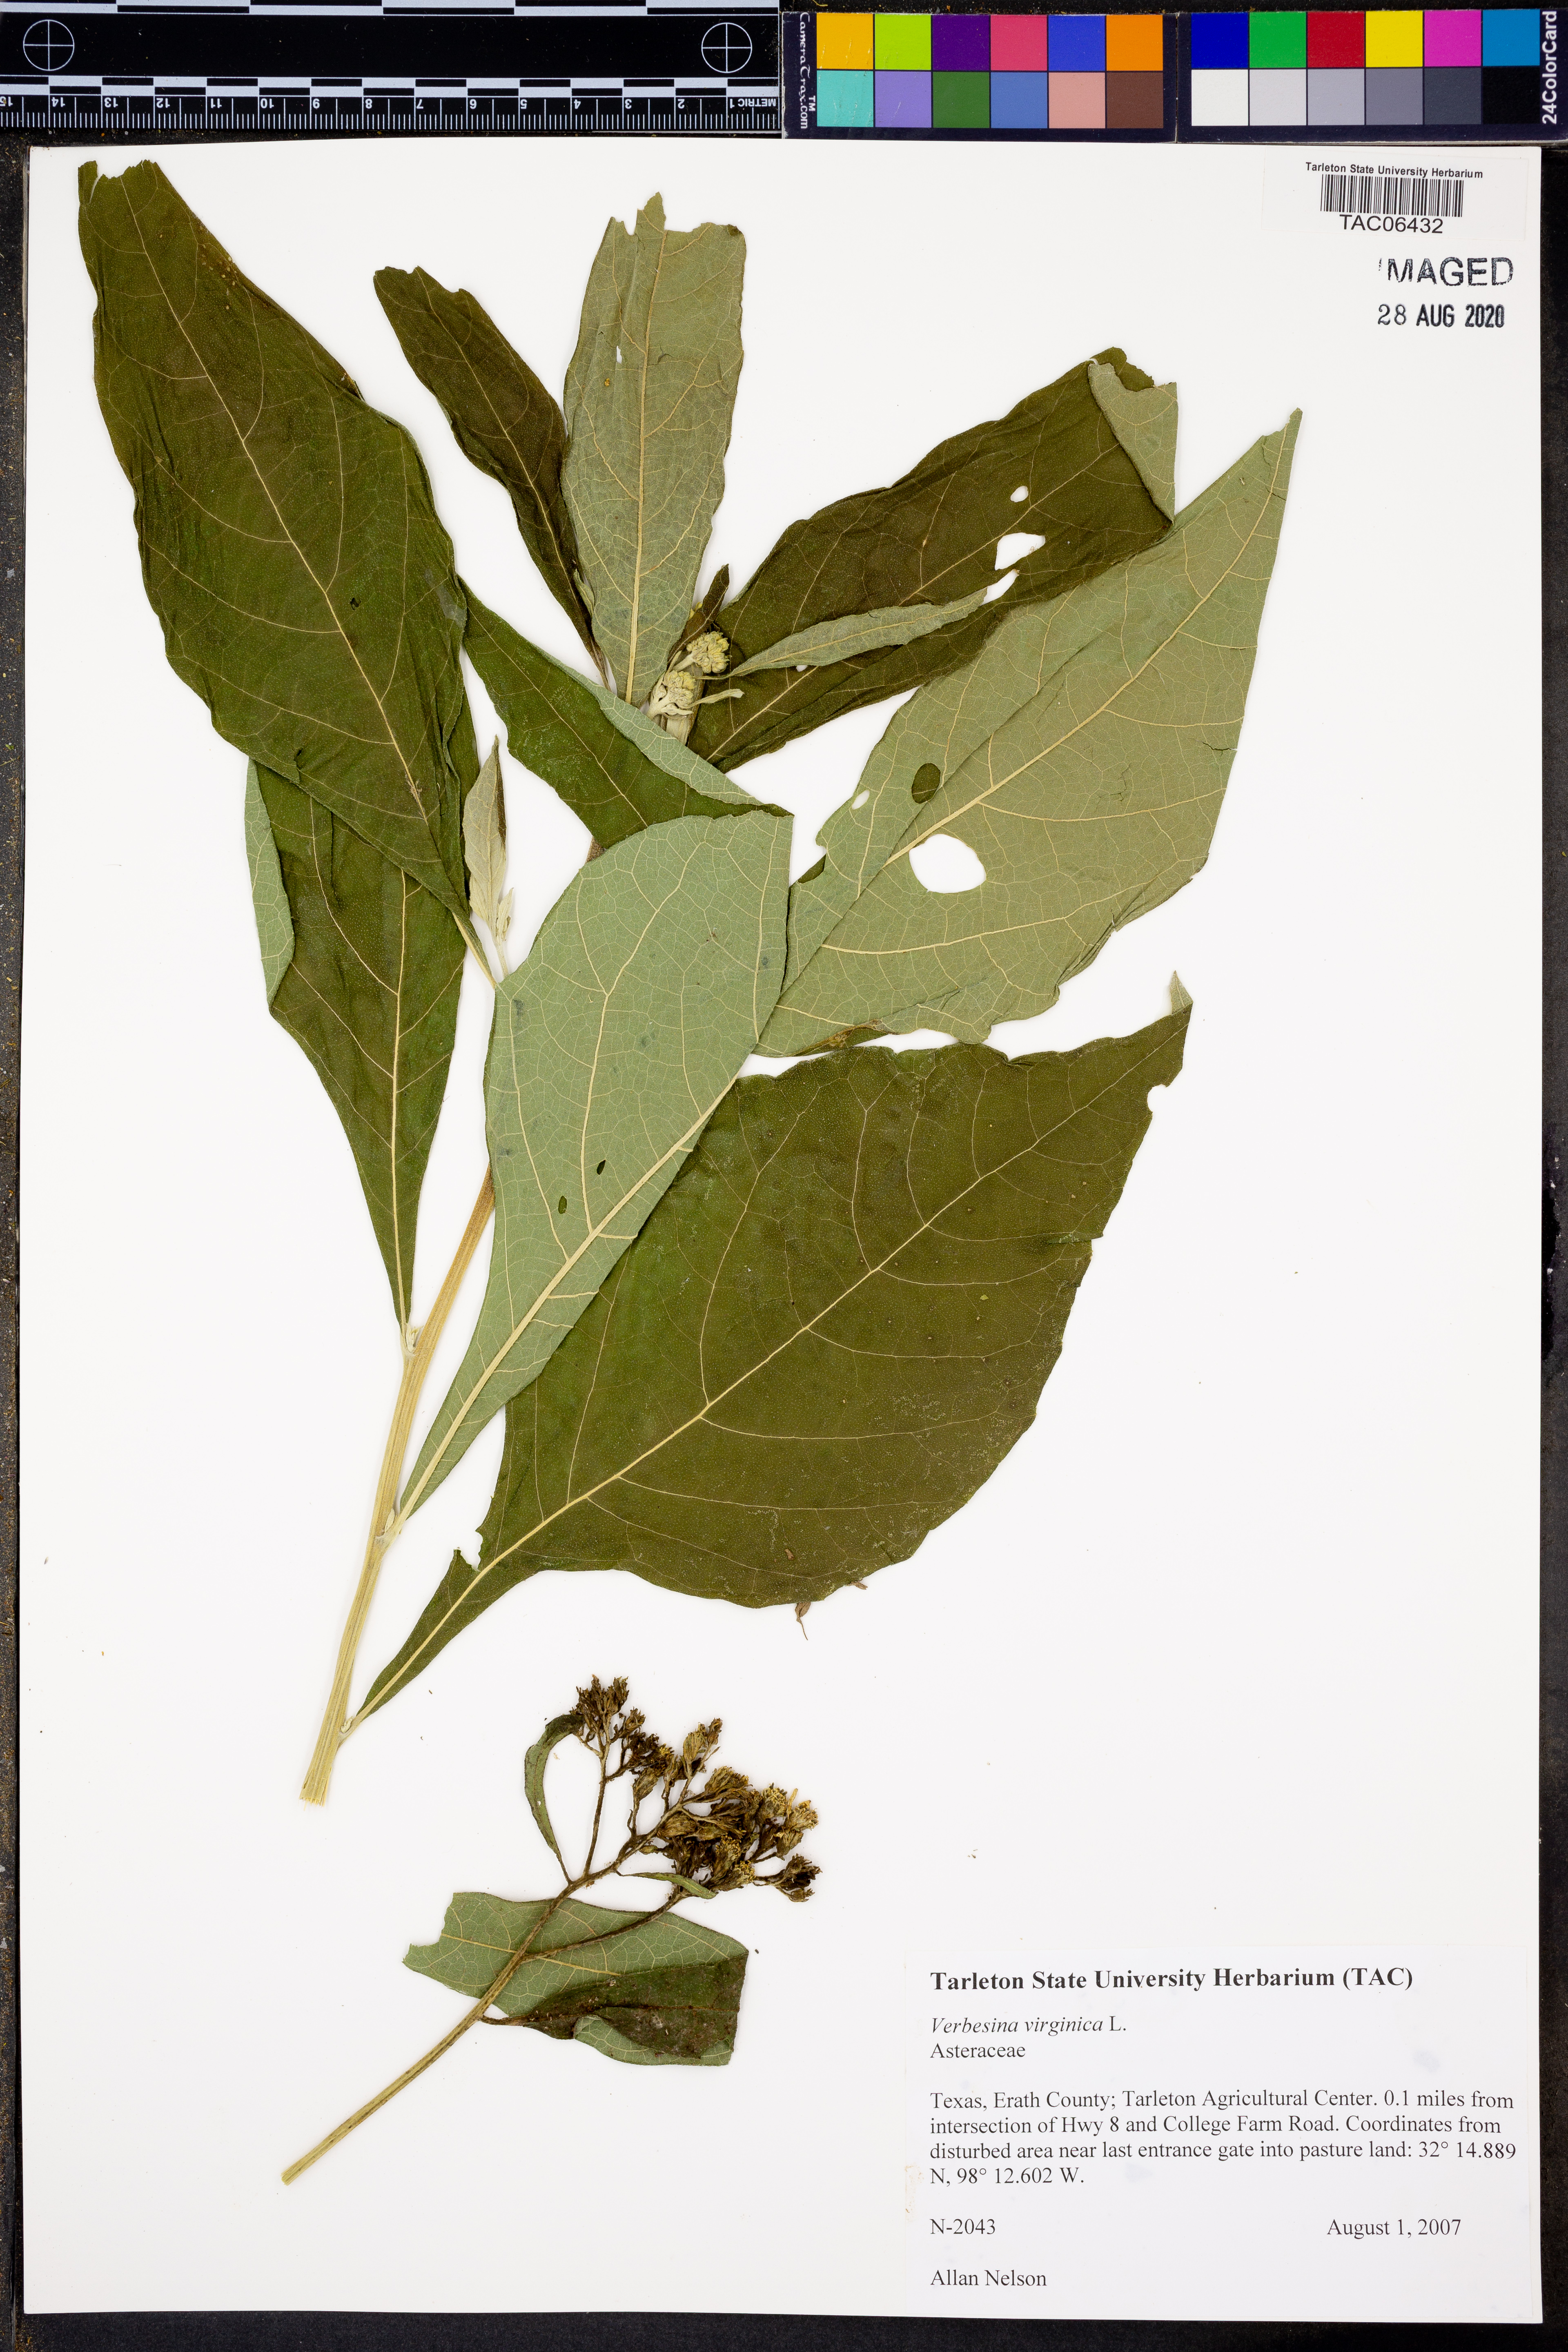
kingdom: Plantae
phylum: Tracheophyta
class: Magnoliopsida
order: Asterales
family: Asteraceae
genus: Verbesina
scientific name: Verbesina virginica
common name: Frostweed
